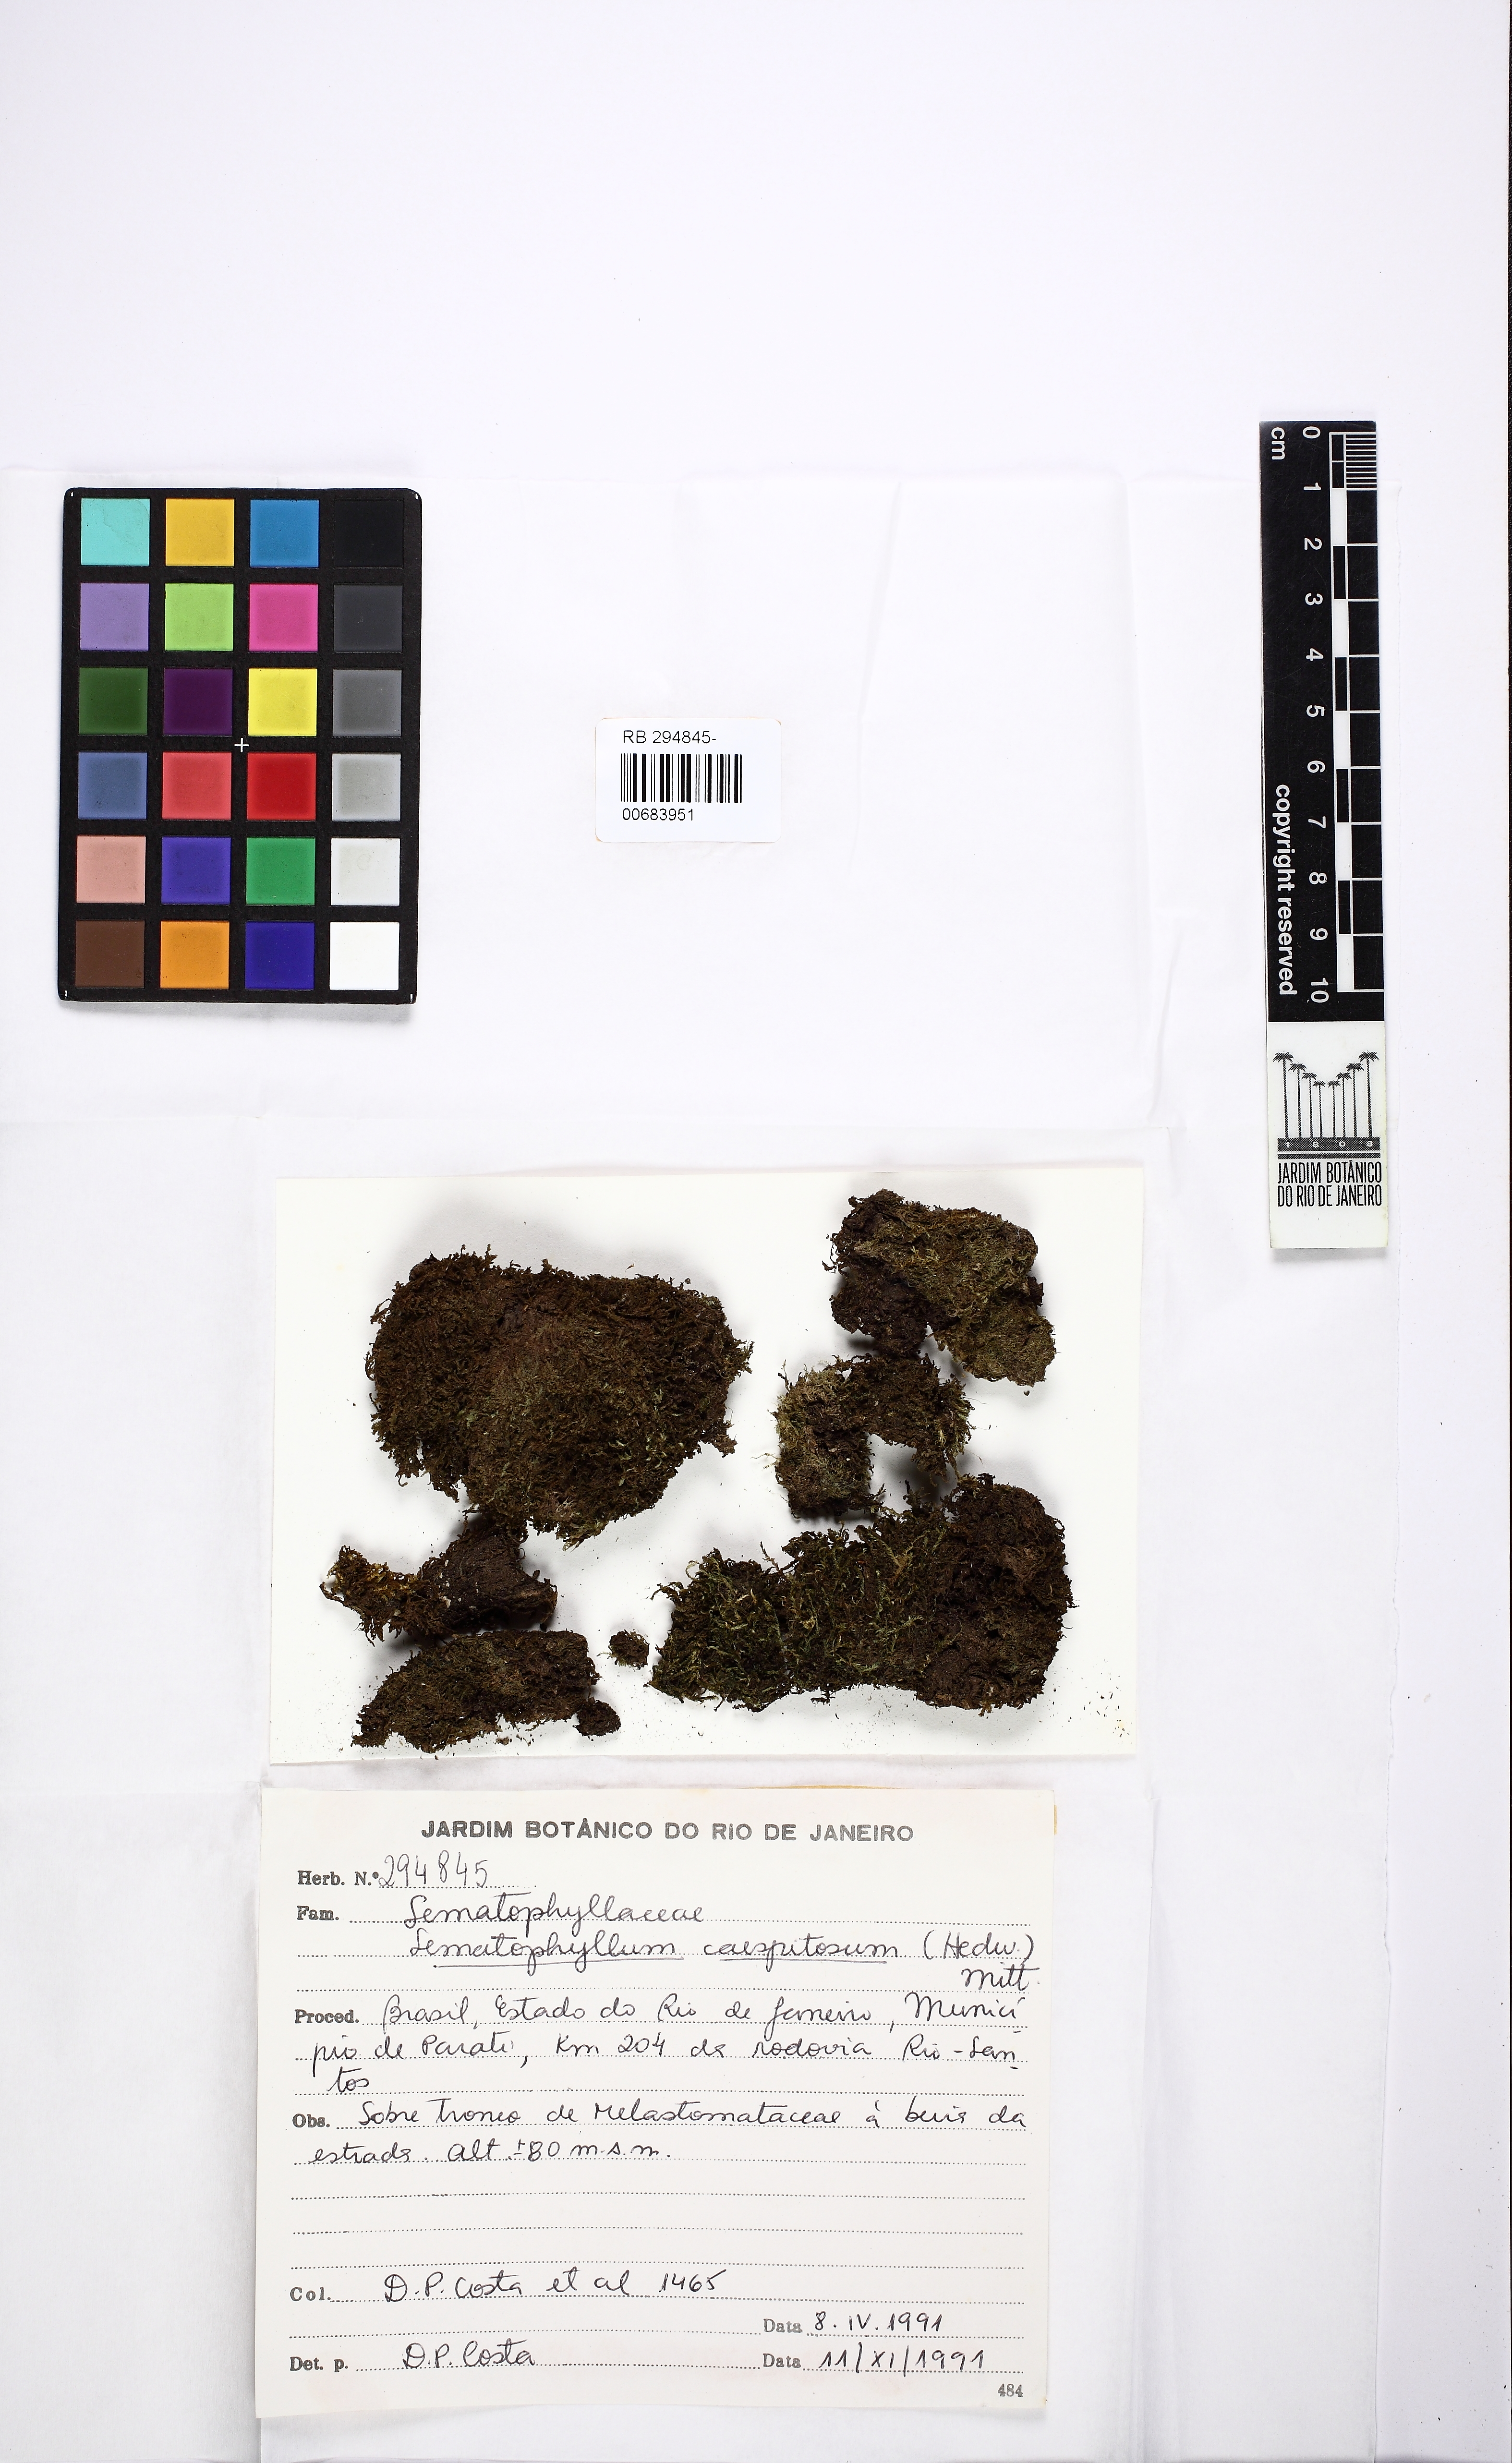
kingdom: Plantae
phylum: Bryophyta
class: Bryopsida
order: Hypnales
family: Sematophyllaceae
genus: Brittonodoxa
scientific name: Brittonodoxa subpinnata
